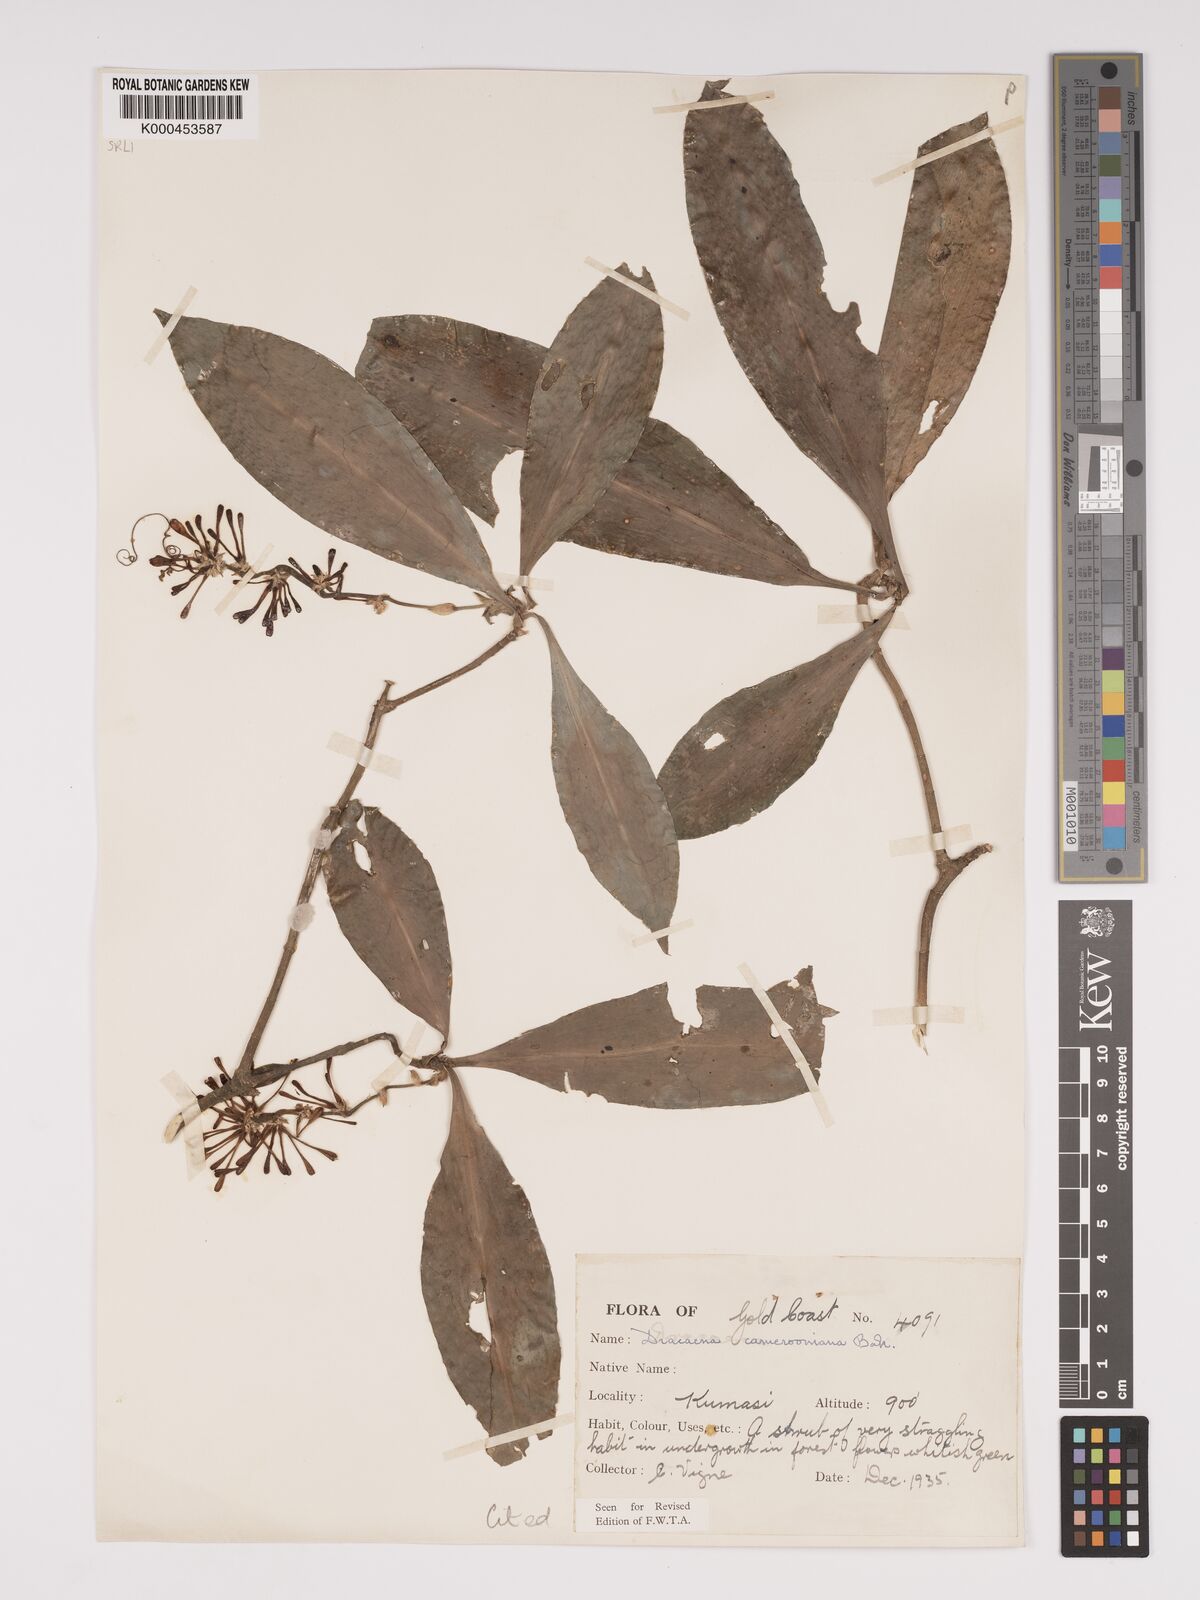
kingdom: Plantae
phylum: Tracheophyta
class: Liliopsida
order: Asparagales
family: Asparagaceae
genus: Dracaena
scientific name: Dracaena camerooniana
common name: Dragon tree
